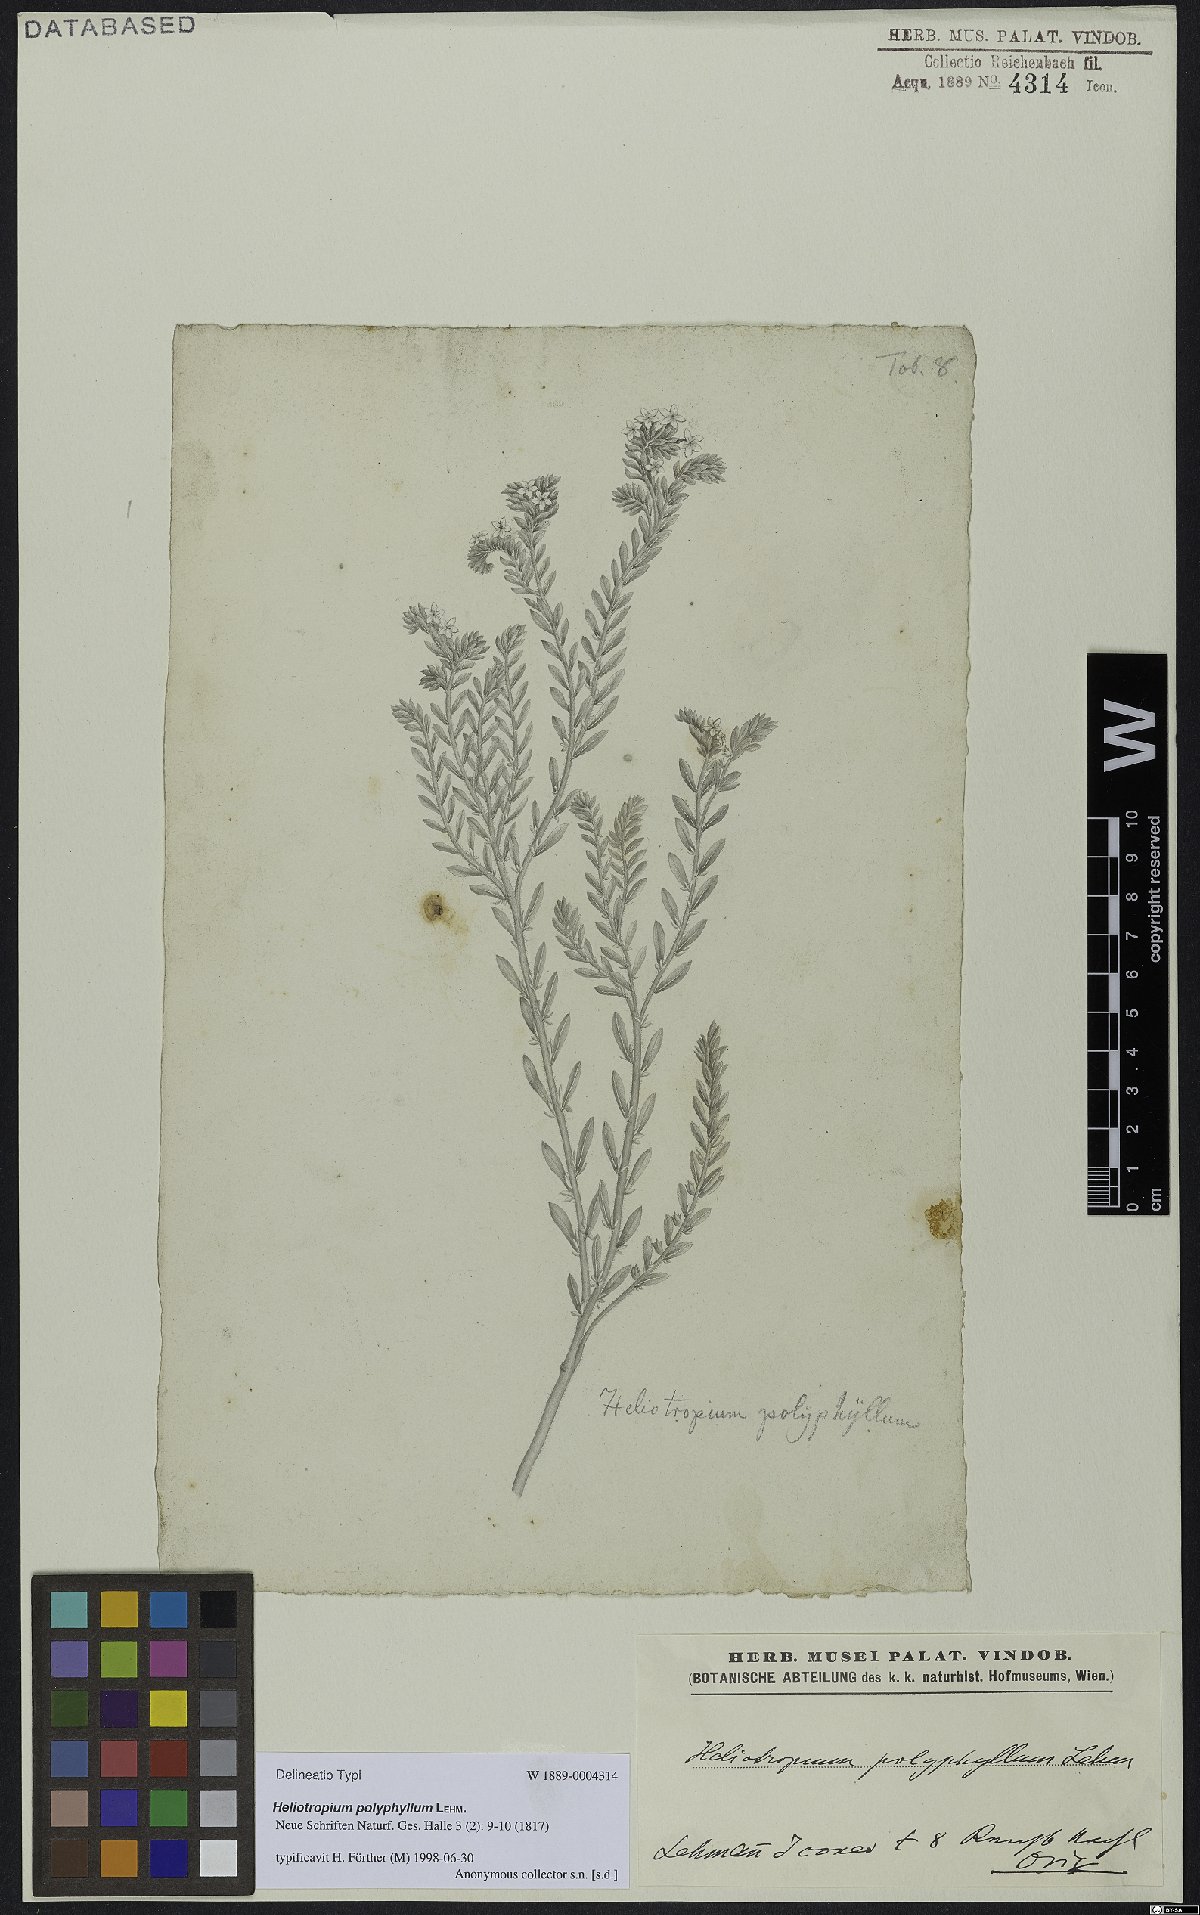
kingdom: Plantae
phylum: Tracheophyta
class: Magnoliopsida
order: Boraginales
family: Heliotropiaceae
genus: Euploca
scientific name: Euploca polyphylla
